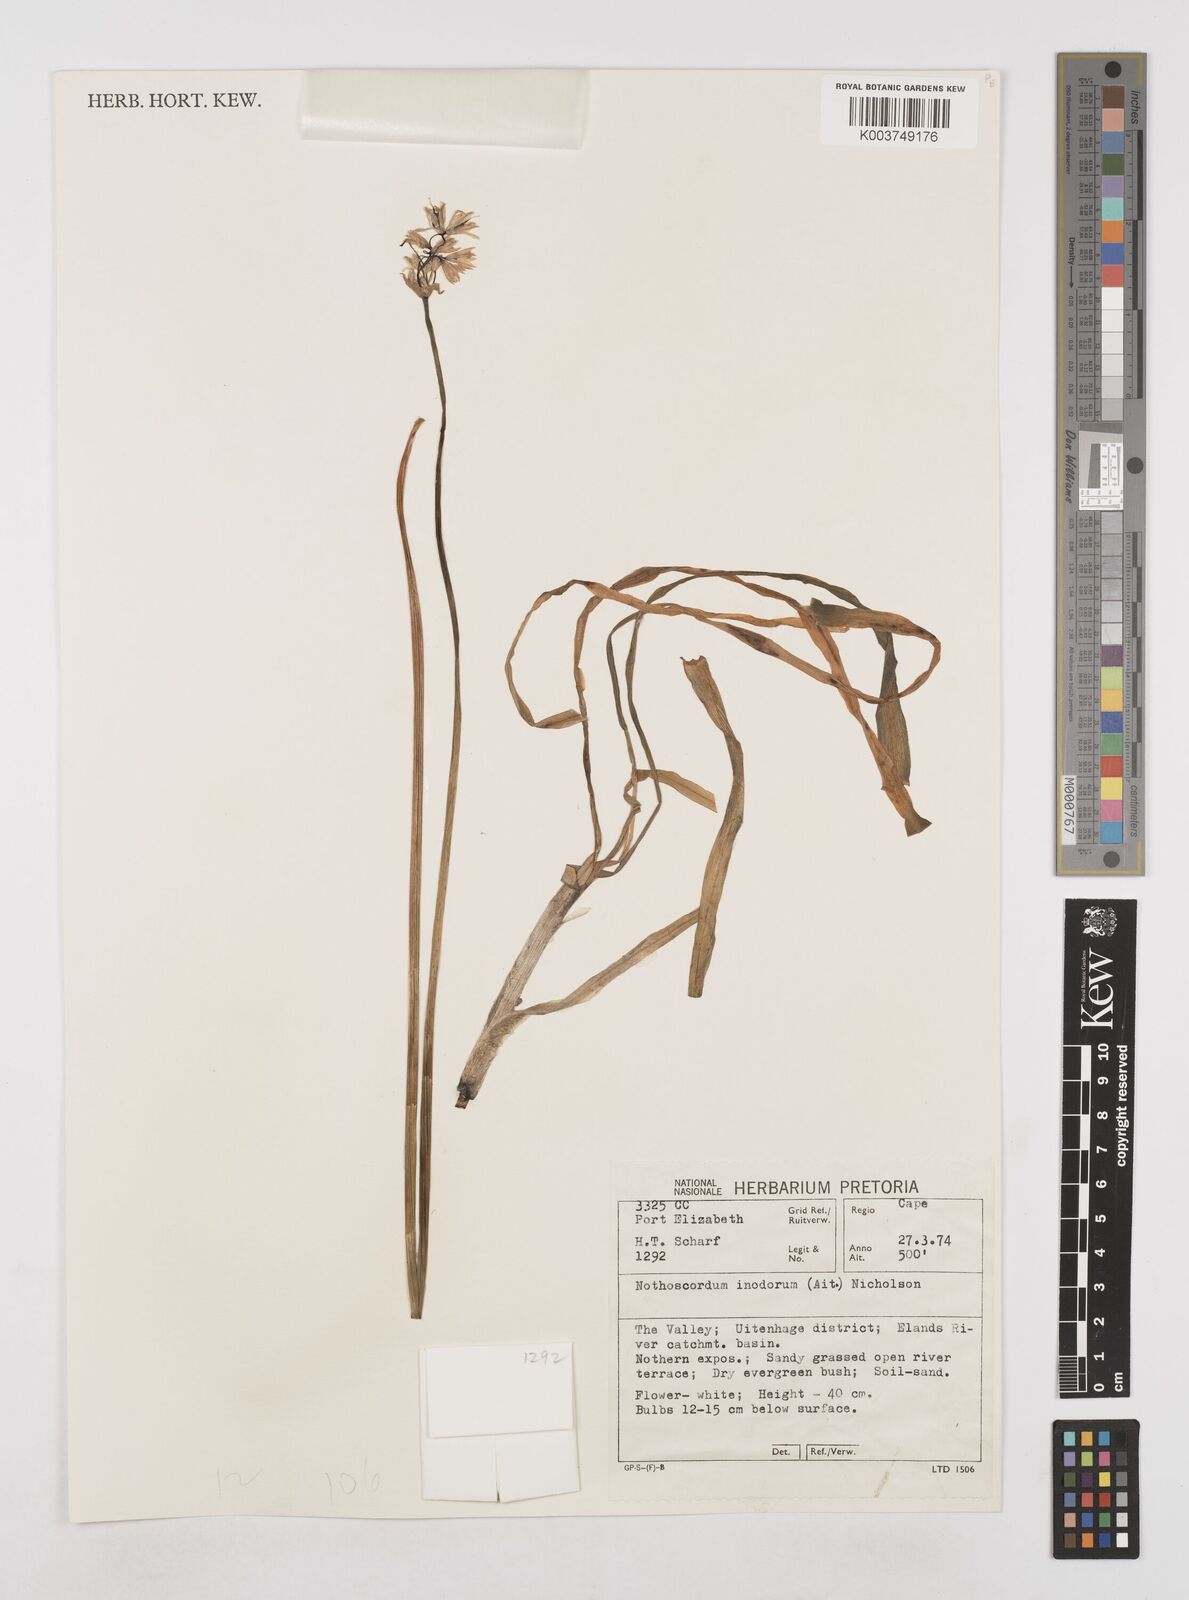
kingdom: Plantae
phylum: Tracheophyta
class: Liliopsida
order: Asparagales
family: Amaryllidaceae
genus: Allium
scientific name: Allium neapolitanum
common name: Neapolitan garlic
